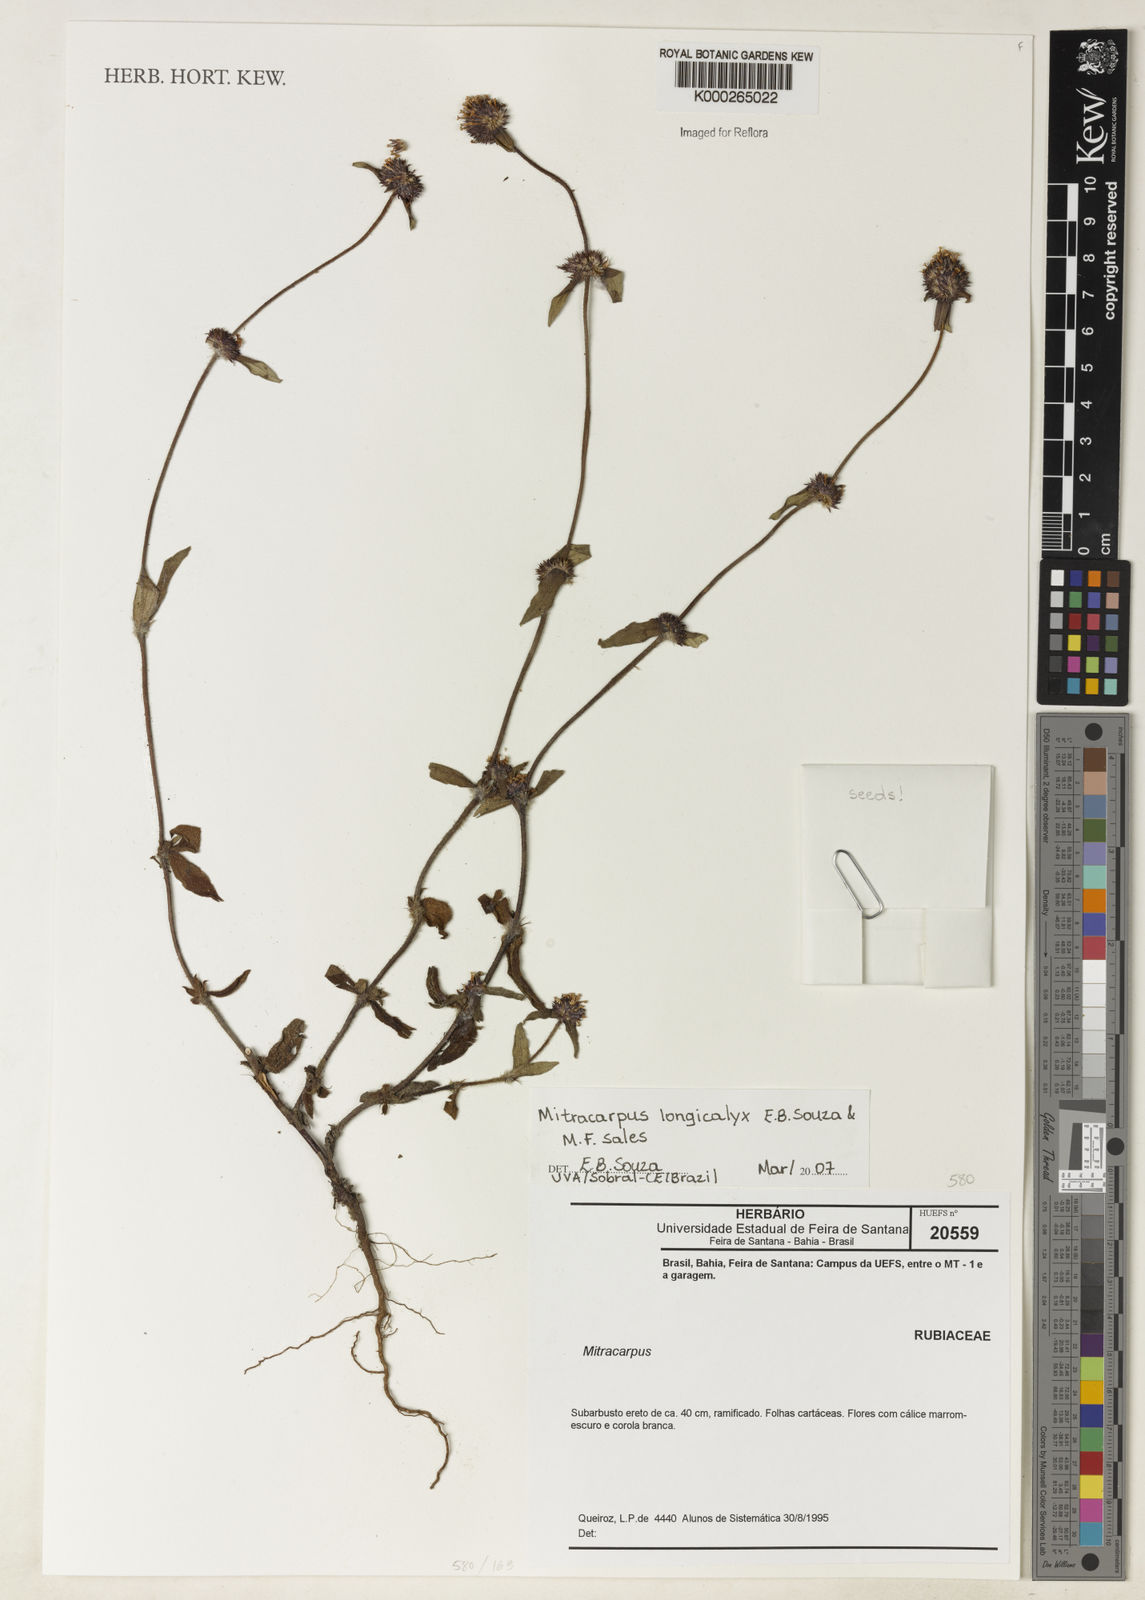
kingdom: Plantae
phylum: Tracheophyta
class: Magnoliopsida
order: Gentianales
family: Rubiaceae
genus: Mitracarpus
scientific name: Mitracarpus longicalyx
